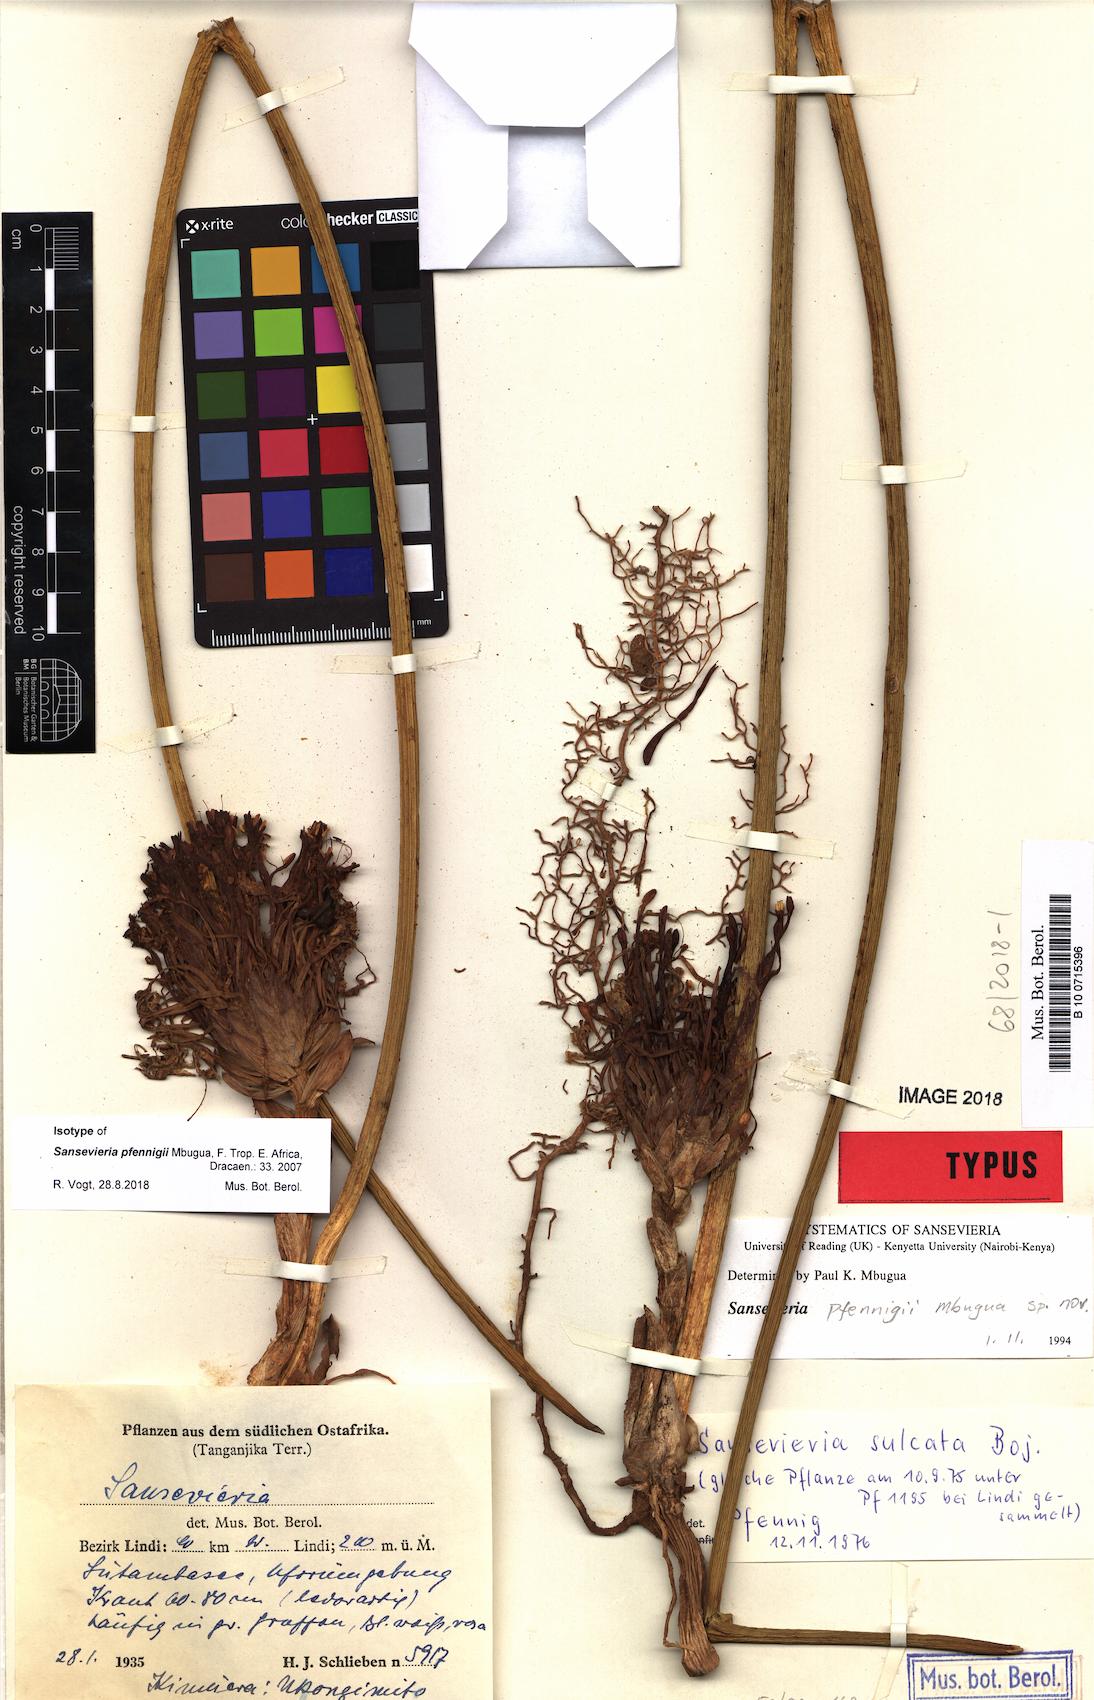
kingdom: Plantae
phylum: Tracheophyta
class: Liliopsida
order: Asparagales
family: Asparagaceae
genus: Dracaena
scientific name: Dracaena pfennigii
